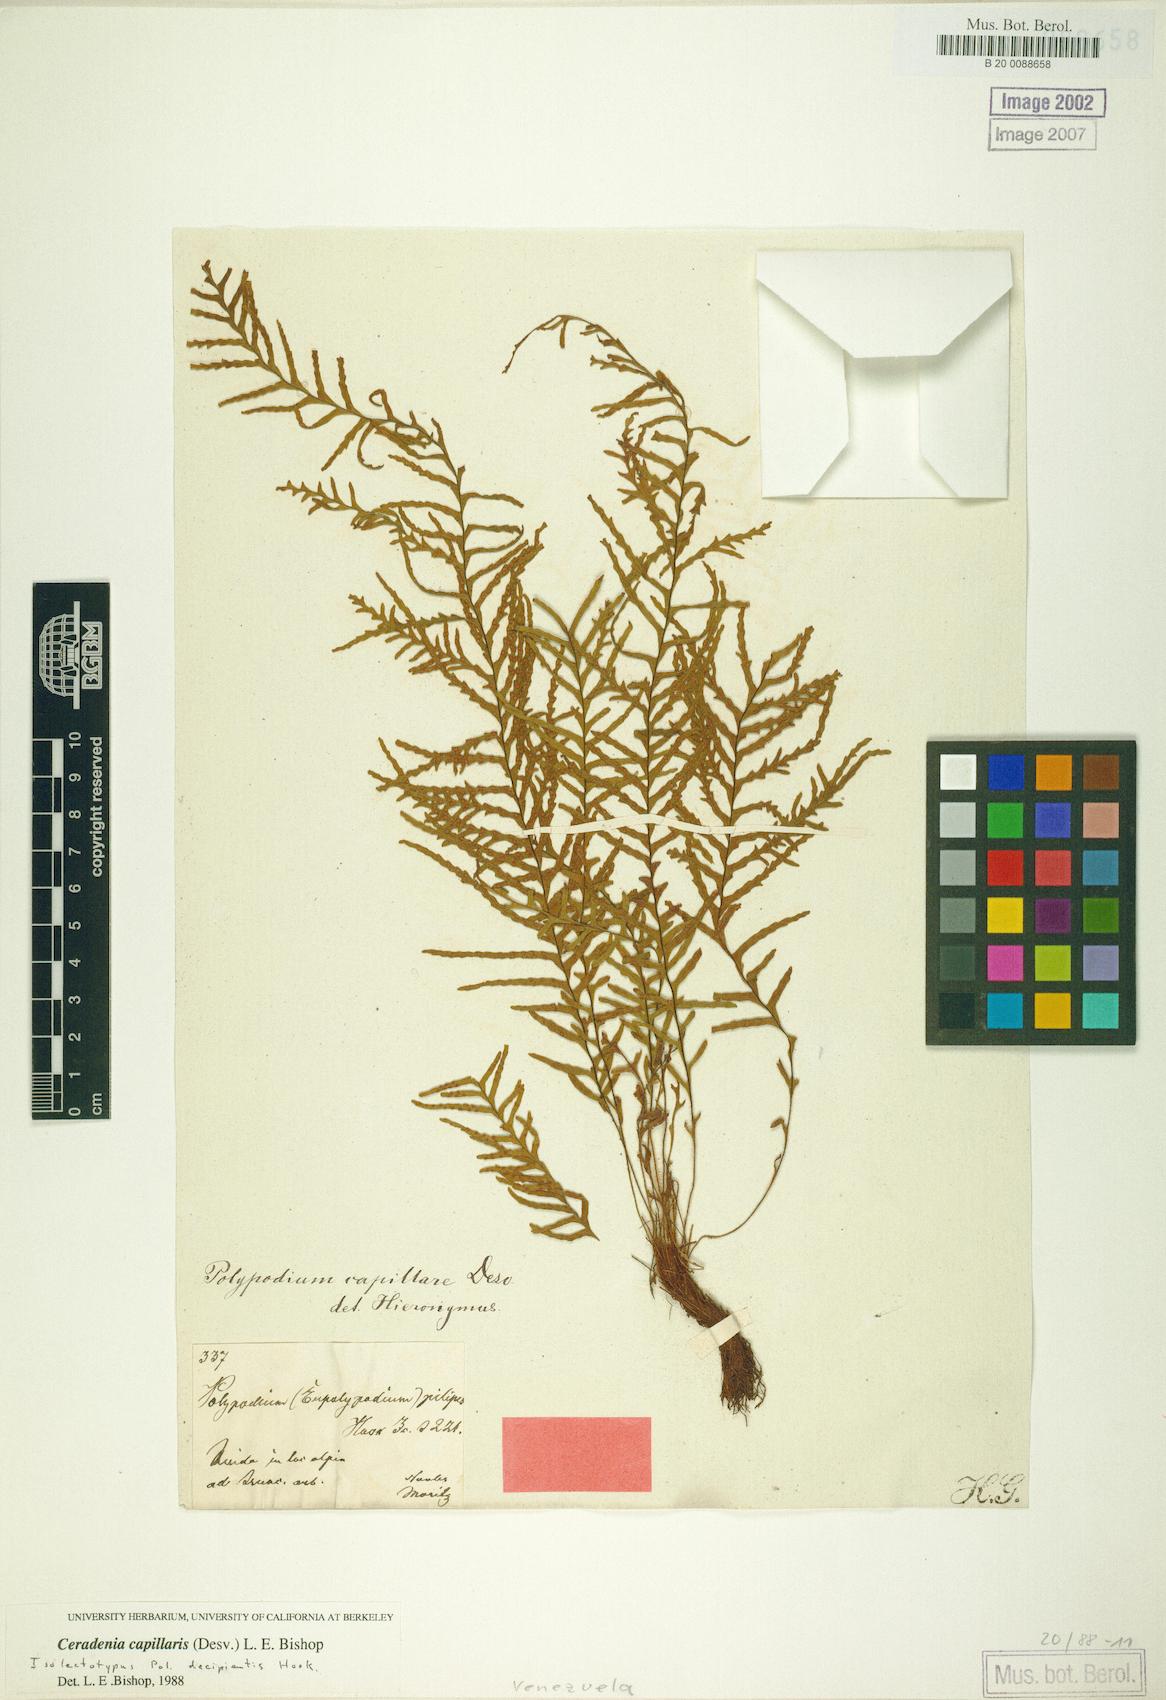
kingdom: Plantae
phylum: Tracheophyta
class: Polypodiopsida
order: Polypodiales
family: Polypodiaceae
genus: Ceradenia
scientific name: Ceradenia pilipes
